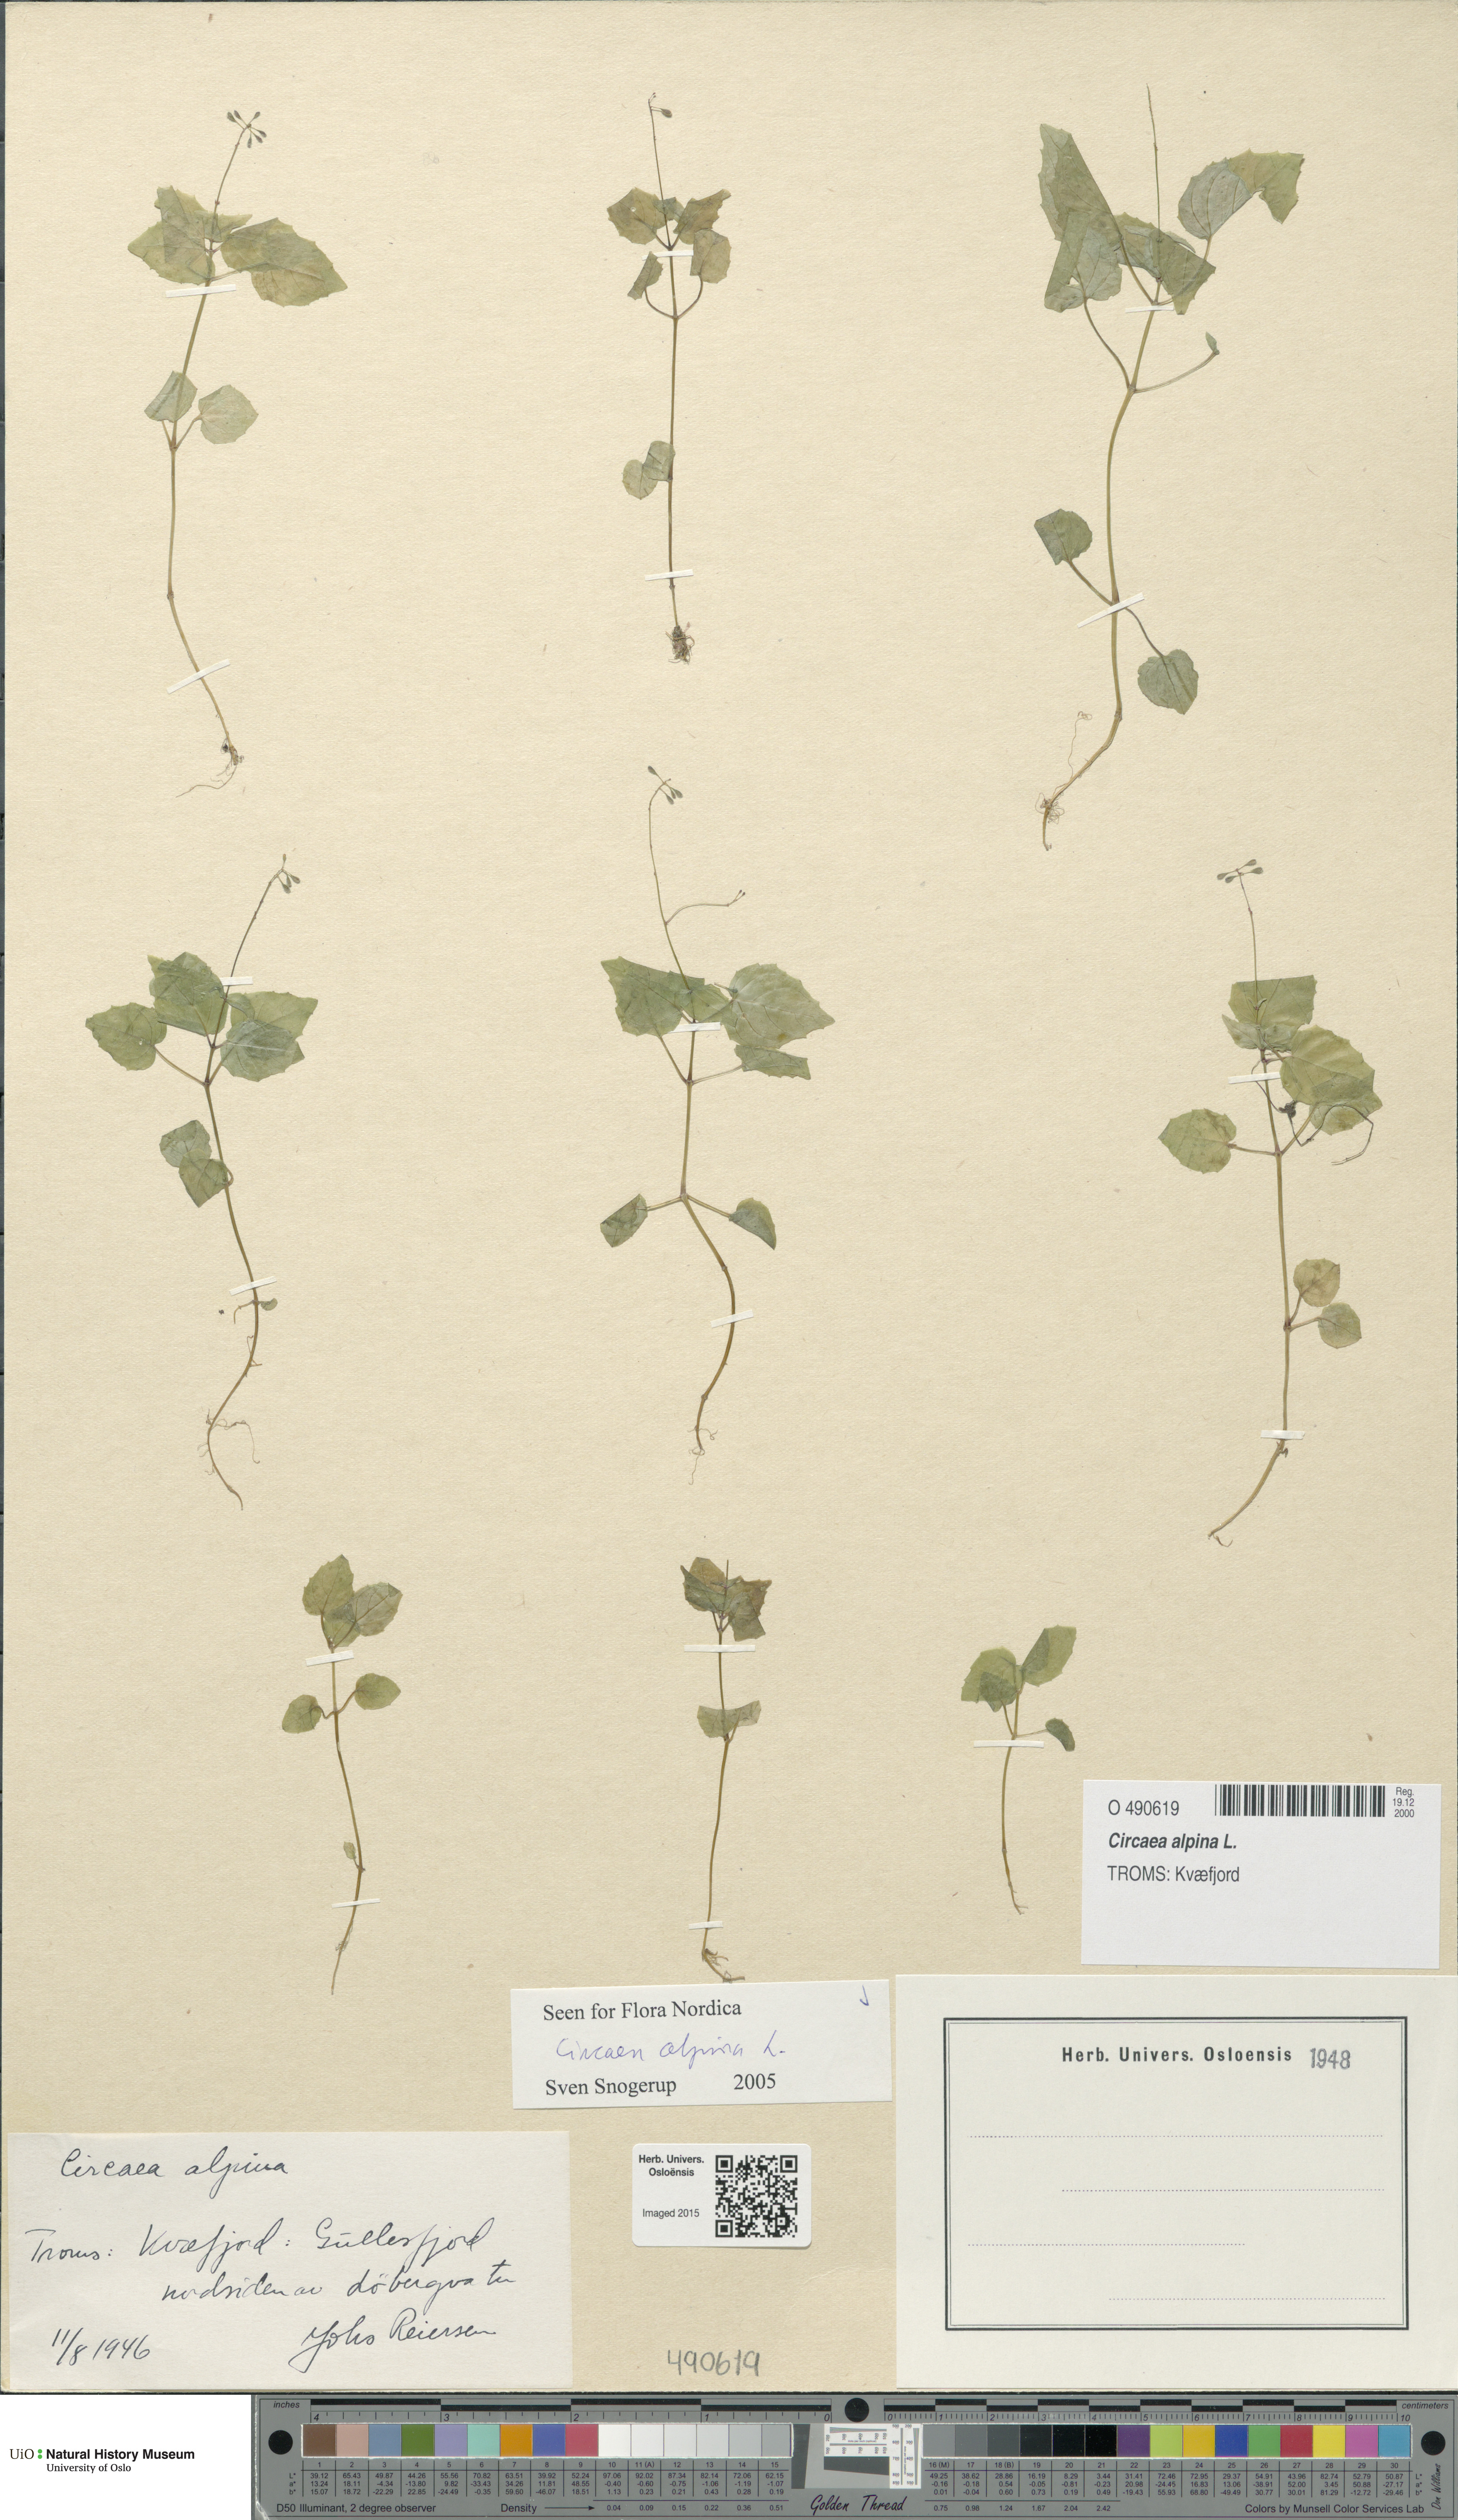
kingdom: Plantae
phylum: Tracheophyta
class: Magnoliopsida
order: Myrtales
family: Onagraceae
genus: Circaea
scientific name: Circaea alpina
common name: Alpine enchanter's-nightshade
